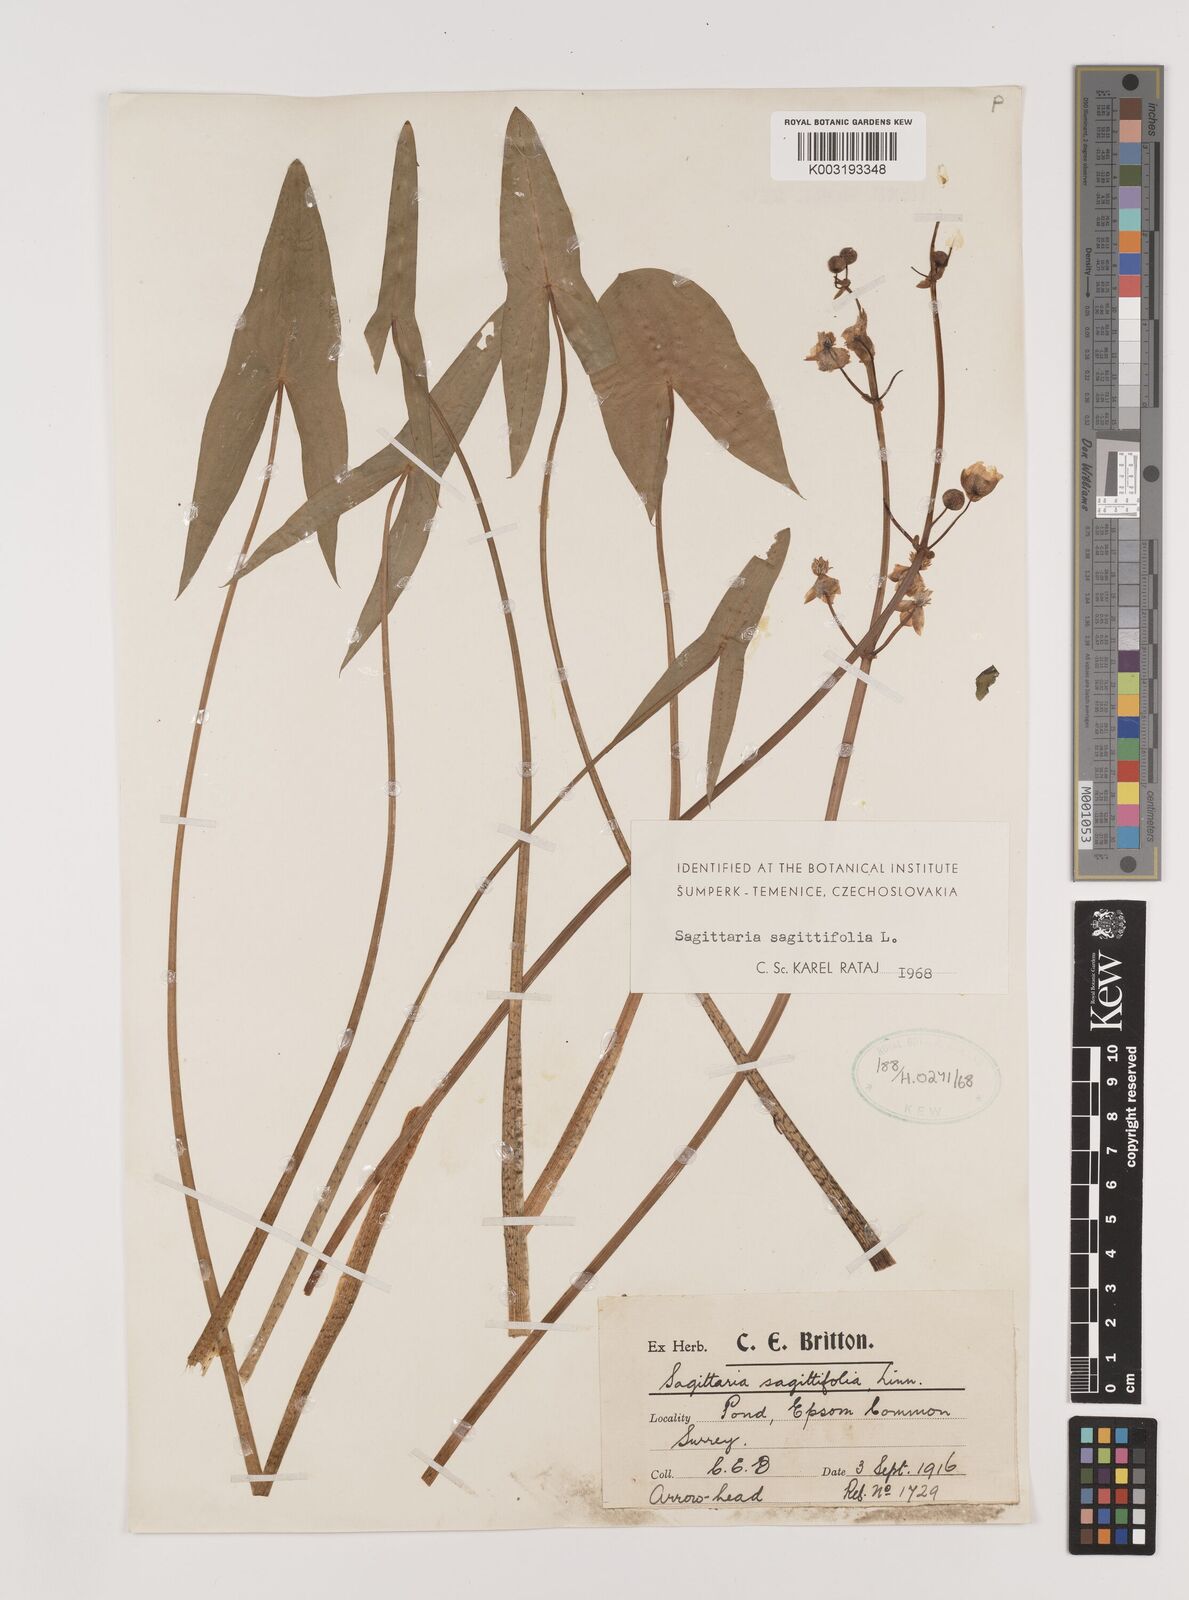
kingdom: Plantae
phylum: Tracheophyta
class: Liliopsida
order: Alismatales
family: Alismataceae
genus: Sagittaria
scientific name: Sagittaria sagittifolia
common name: Arrowhead
